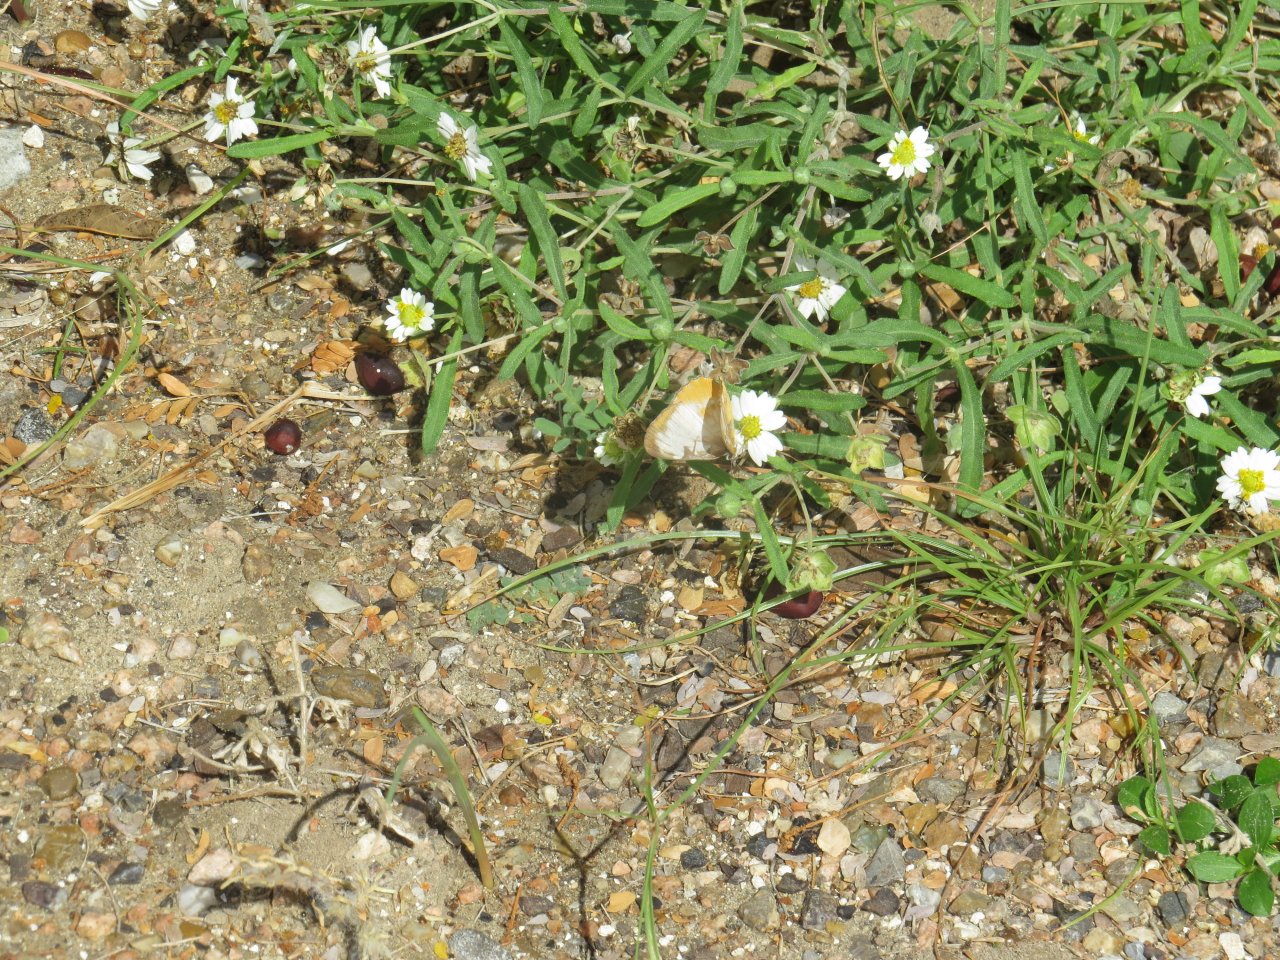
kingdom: Animalia
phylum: Arthropoda
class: Insecta
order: Lepidoptera
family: Nymphalidae
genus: Mestra
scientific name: Mestra amymone
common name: Common Mestra
